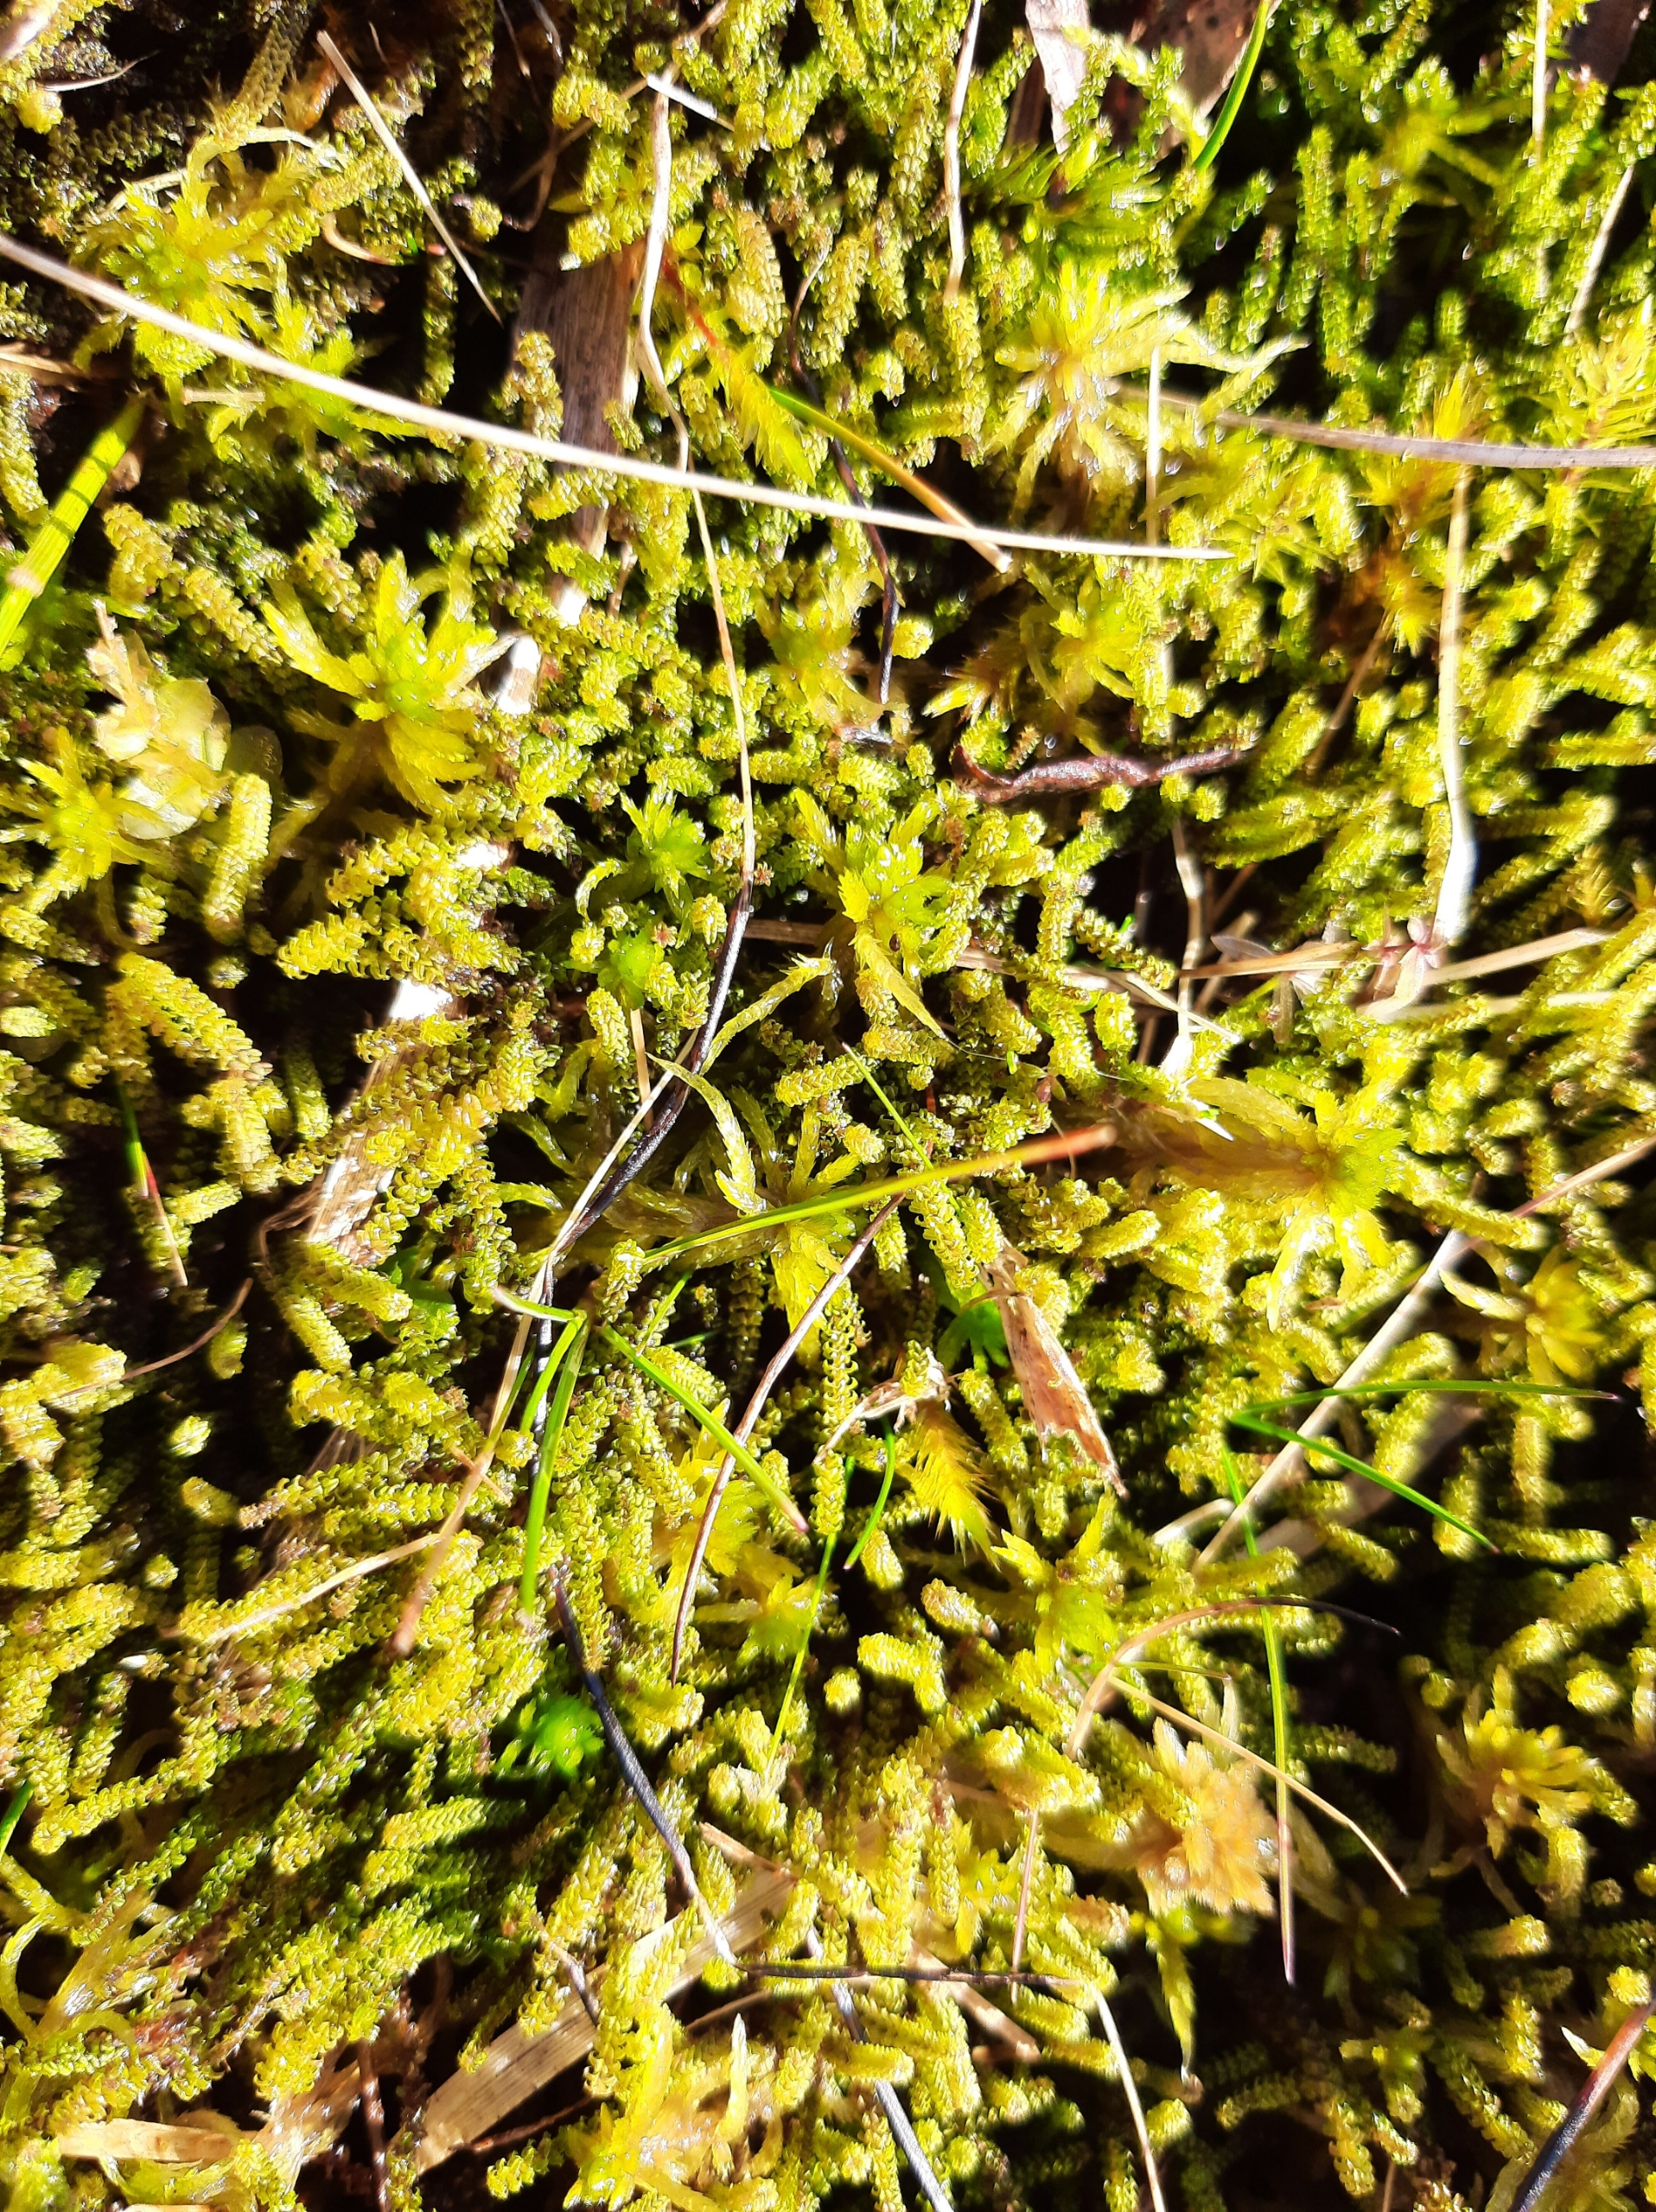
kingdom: Plantae
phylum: Bryophyta
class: Bryopsida
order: Splachnales
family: Meesiaceae
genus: Paludella
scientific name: Paludella squarrosa
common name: Almindelig piberensermos
